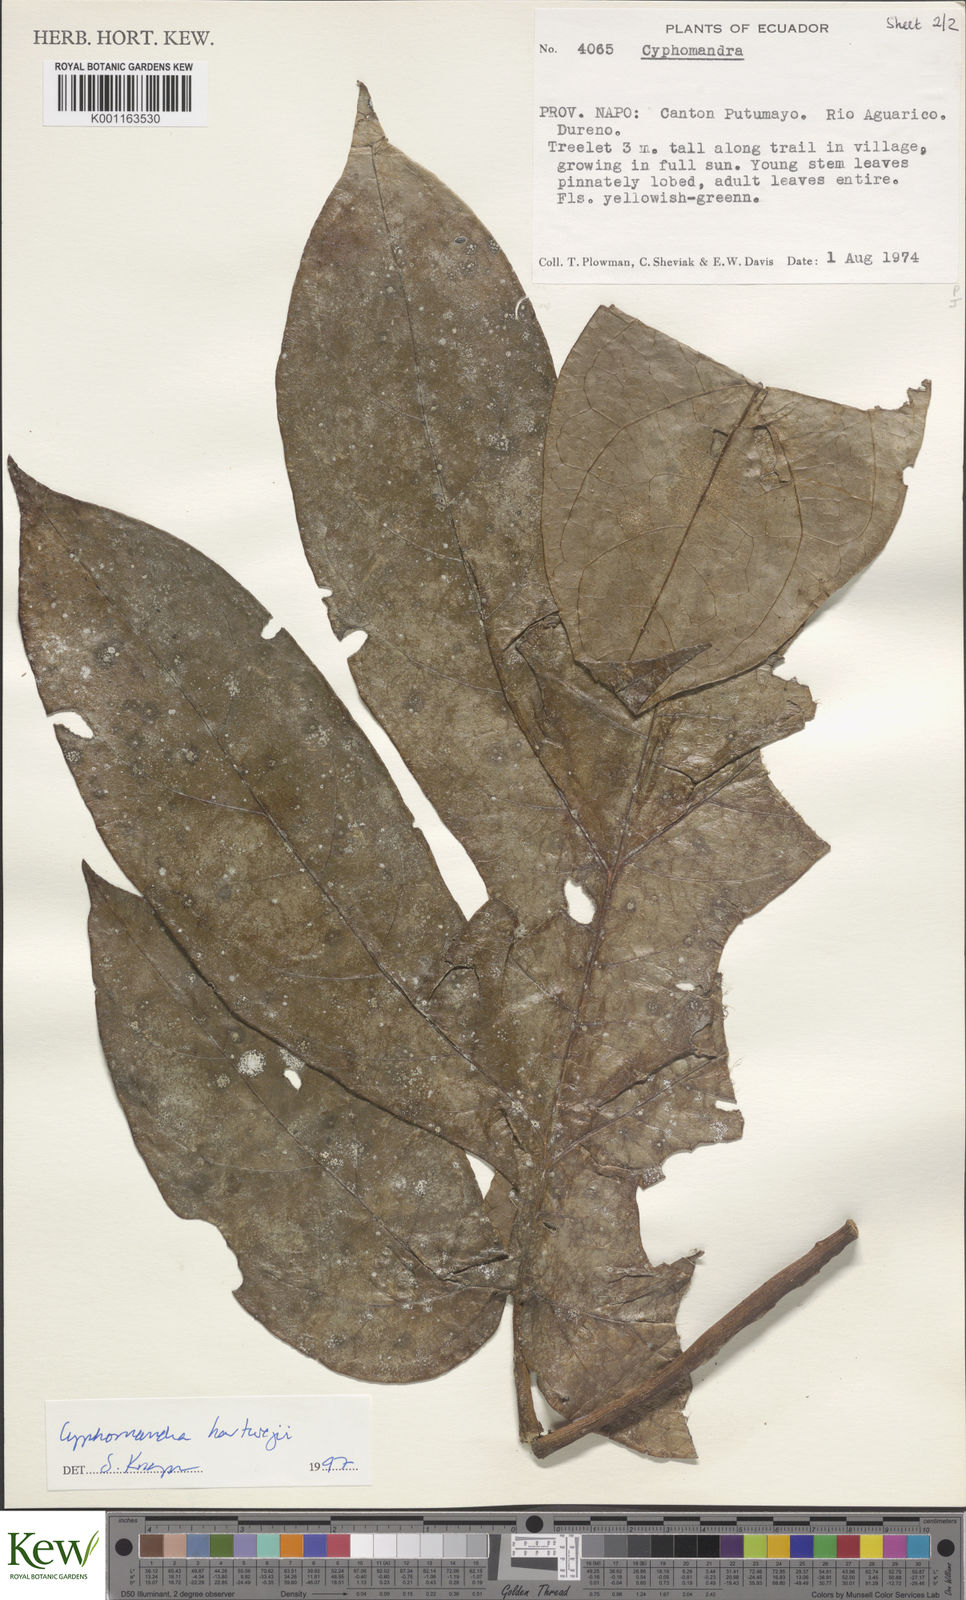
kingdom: Plantae
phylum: Tracheophyta
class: Magnoliopsida
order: Solanales
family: Solanaceae
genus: Solanum
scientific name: Solanum splendens
